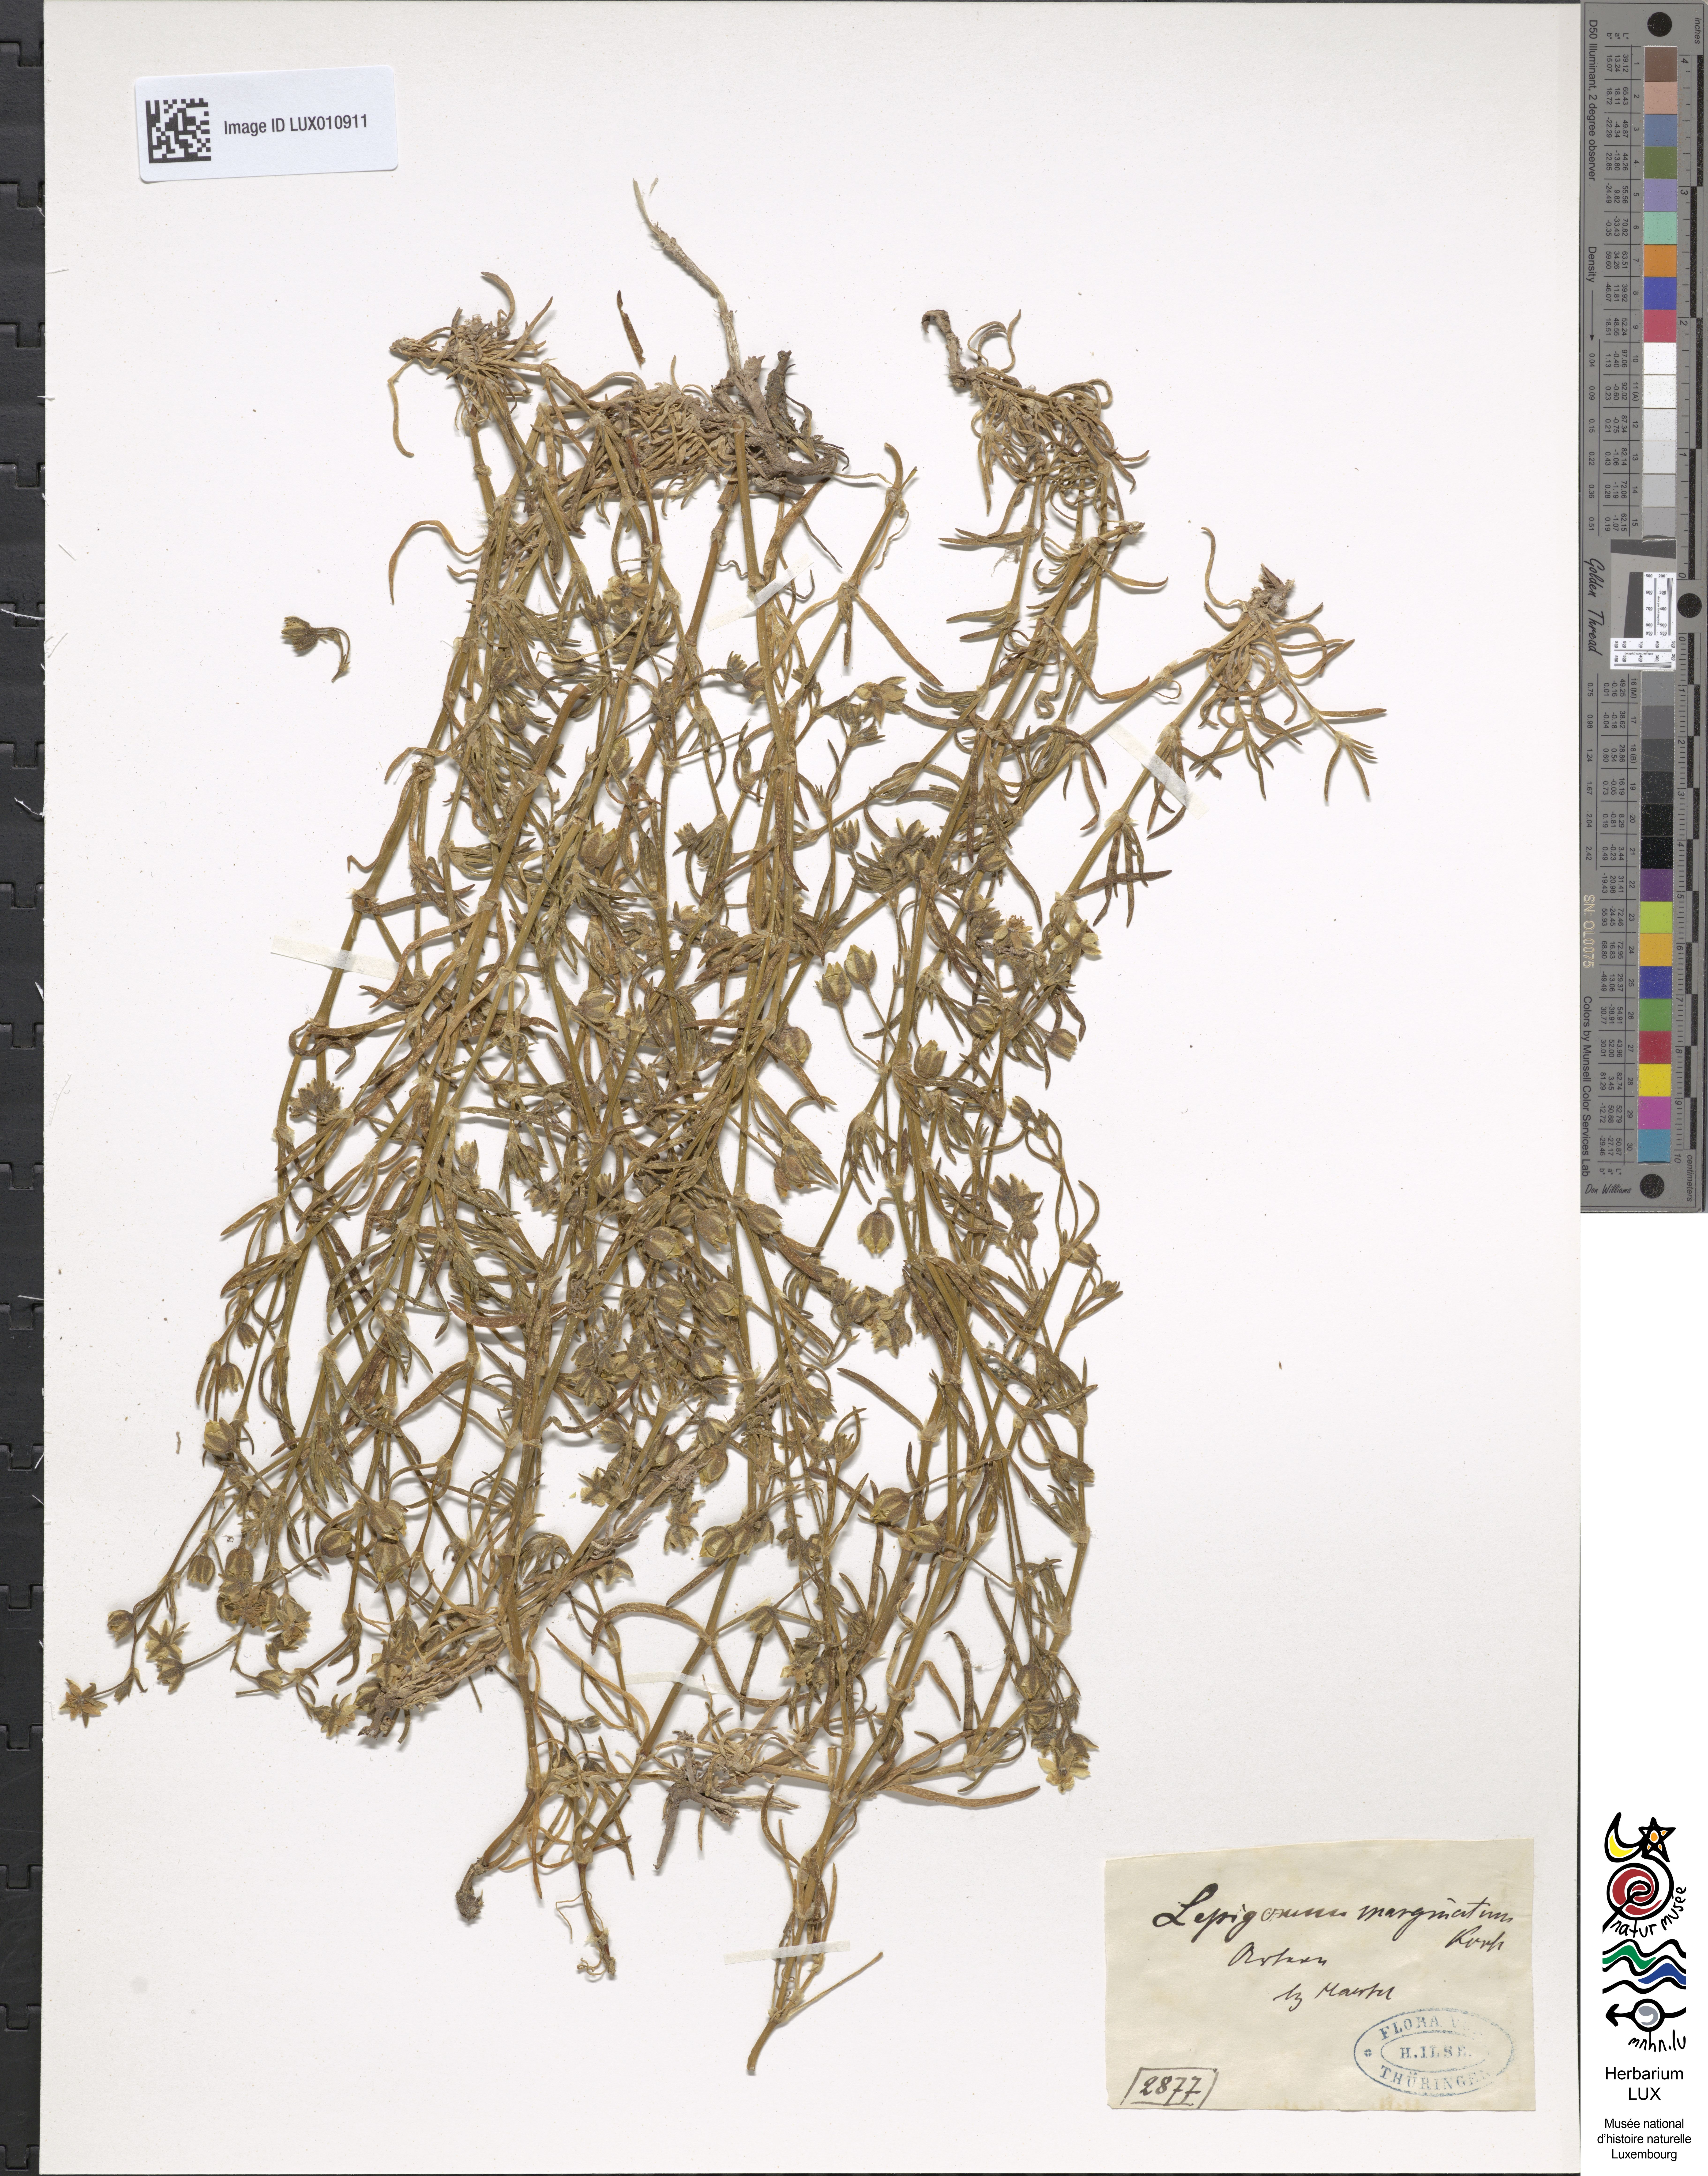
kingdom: Plantae
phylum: Tracheophyta
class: Magnoliopsida
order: Caryophyllales
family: Caryophyllaceae
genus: Spergularia
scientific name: Spergularia media
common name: Greater sea-spurrey
